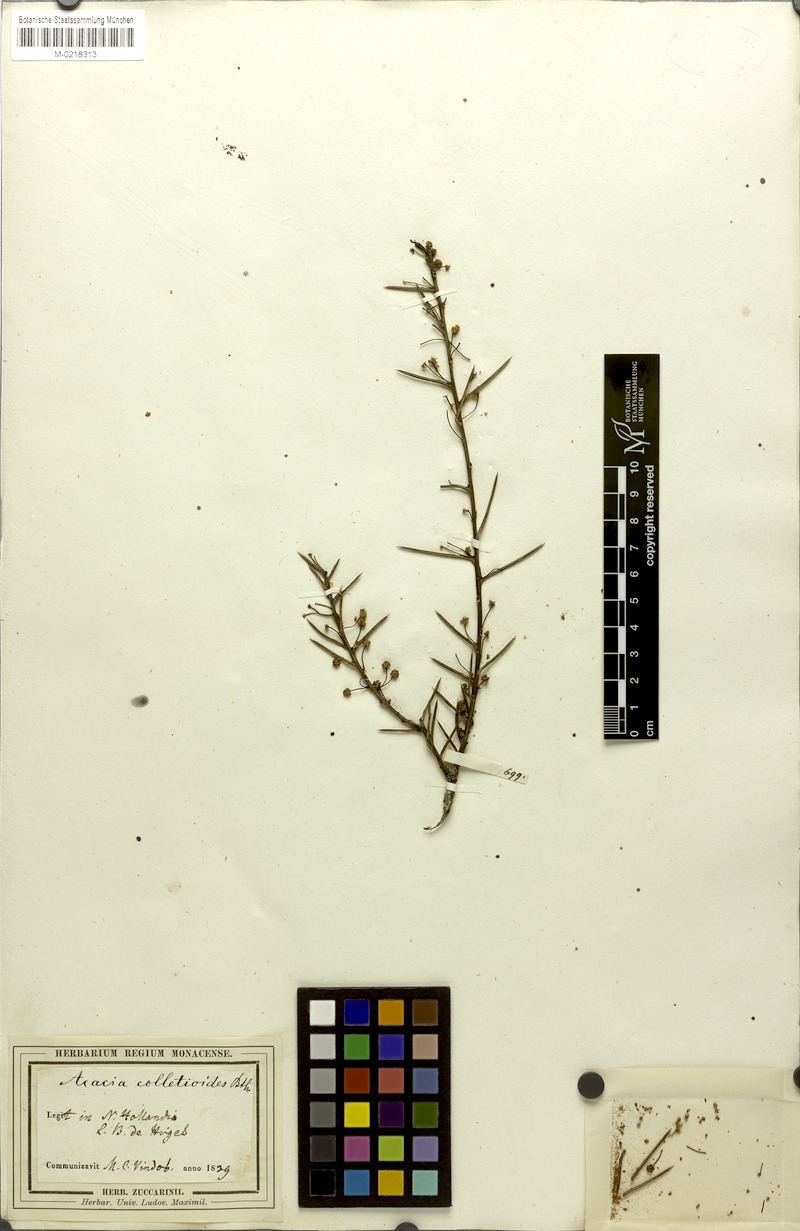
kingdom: Plantae
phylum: Tracheophyta
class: Magnoliopsida
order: Fabales
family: Fabaceae
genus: Acacia
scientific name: Acacia colletioides
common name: Spinebush
